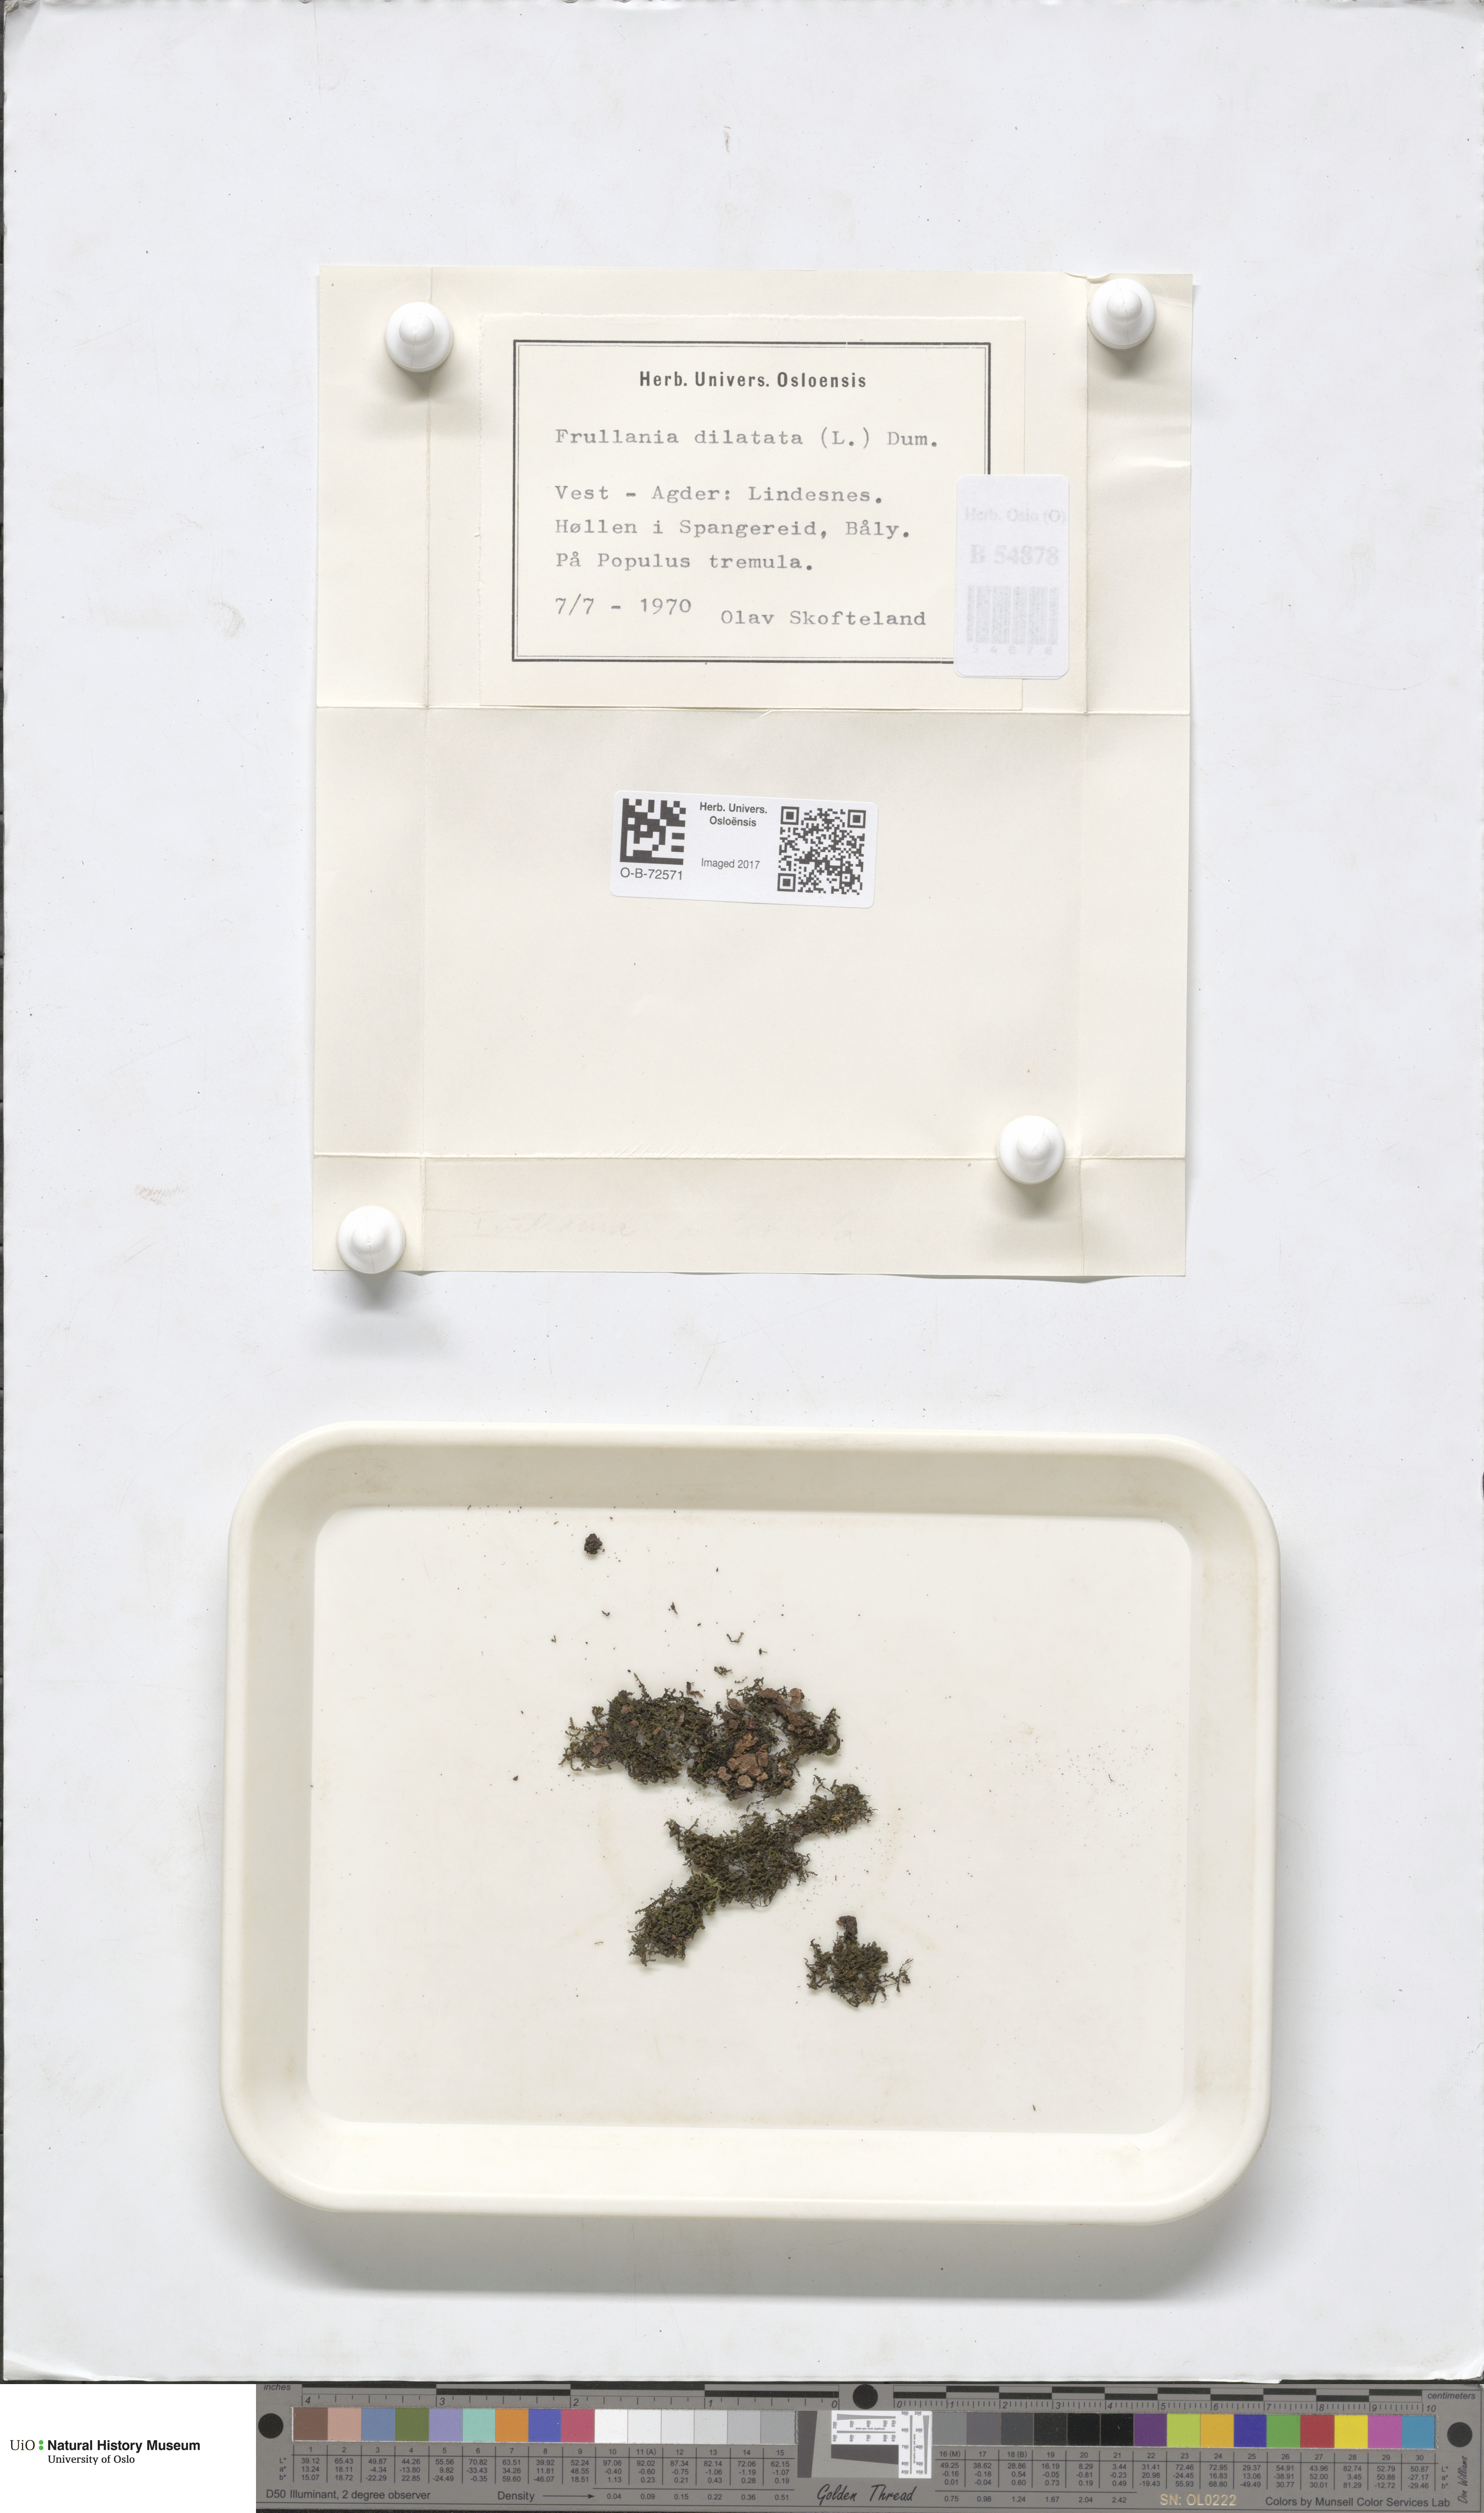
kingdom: Plantae
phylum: Marchantiophyta
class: Jungermanniopsida
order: Porellales
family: Frullaniaceae
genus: Frullania
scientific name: Frullania dilatata
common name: Dilated scalewort
